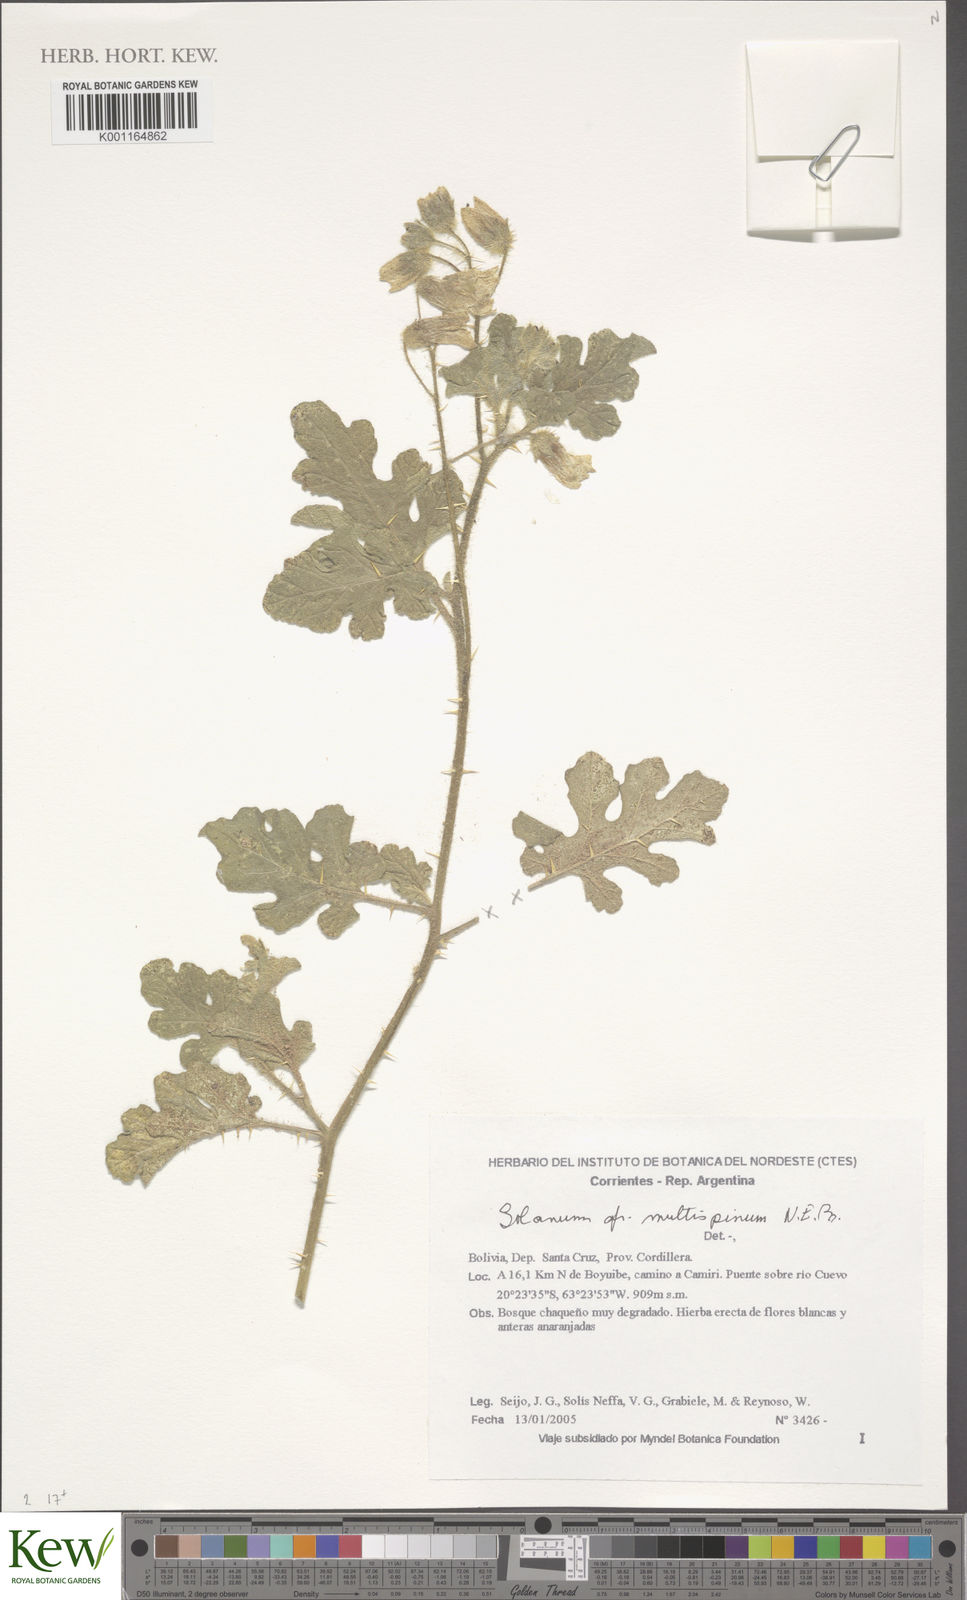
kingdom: Plantae
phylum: Tracheophyta
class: Magnoliopsida
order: Solanales
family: Solanaceae
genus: Solanum
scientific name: Solanum multispinum
